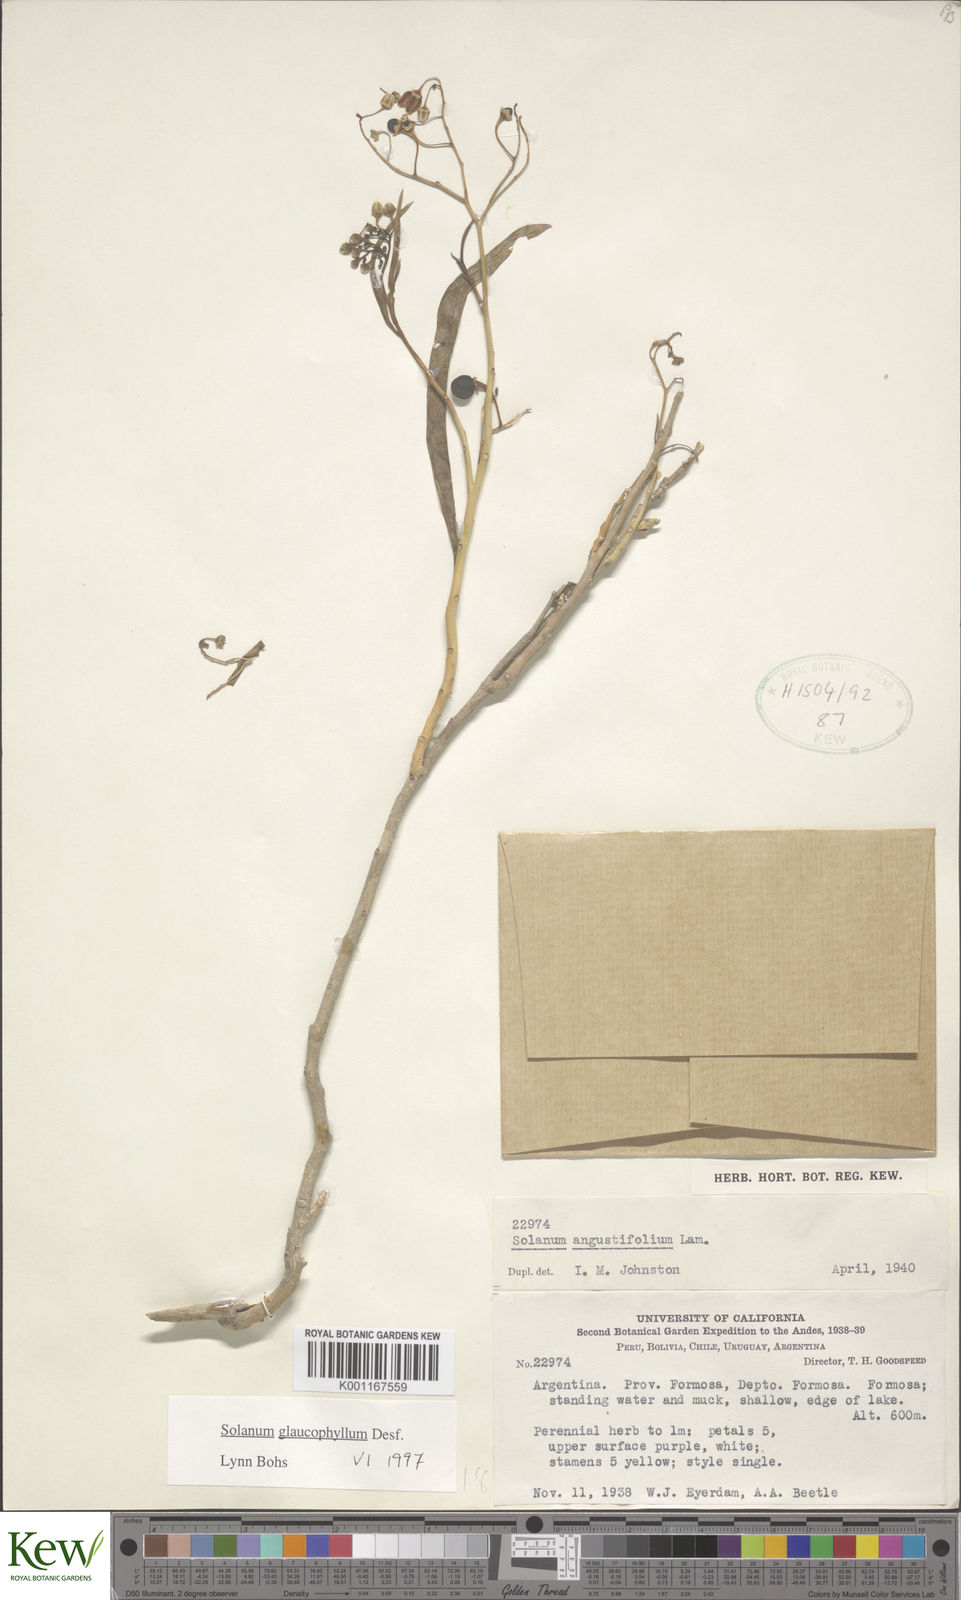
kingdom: Plantae
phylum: Tracheophyta
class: Magnoliopsida
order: Solanales
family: Solanaceae
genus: Solanum
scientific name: Solanum glaucophyllum
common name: Waxyleaf nightshade
